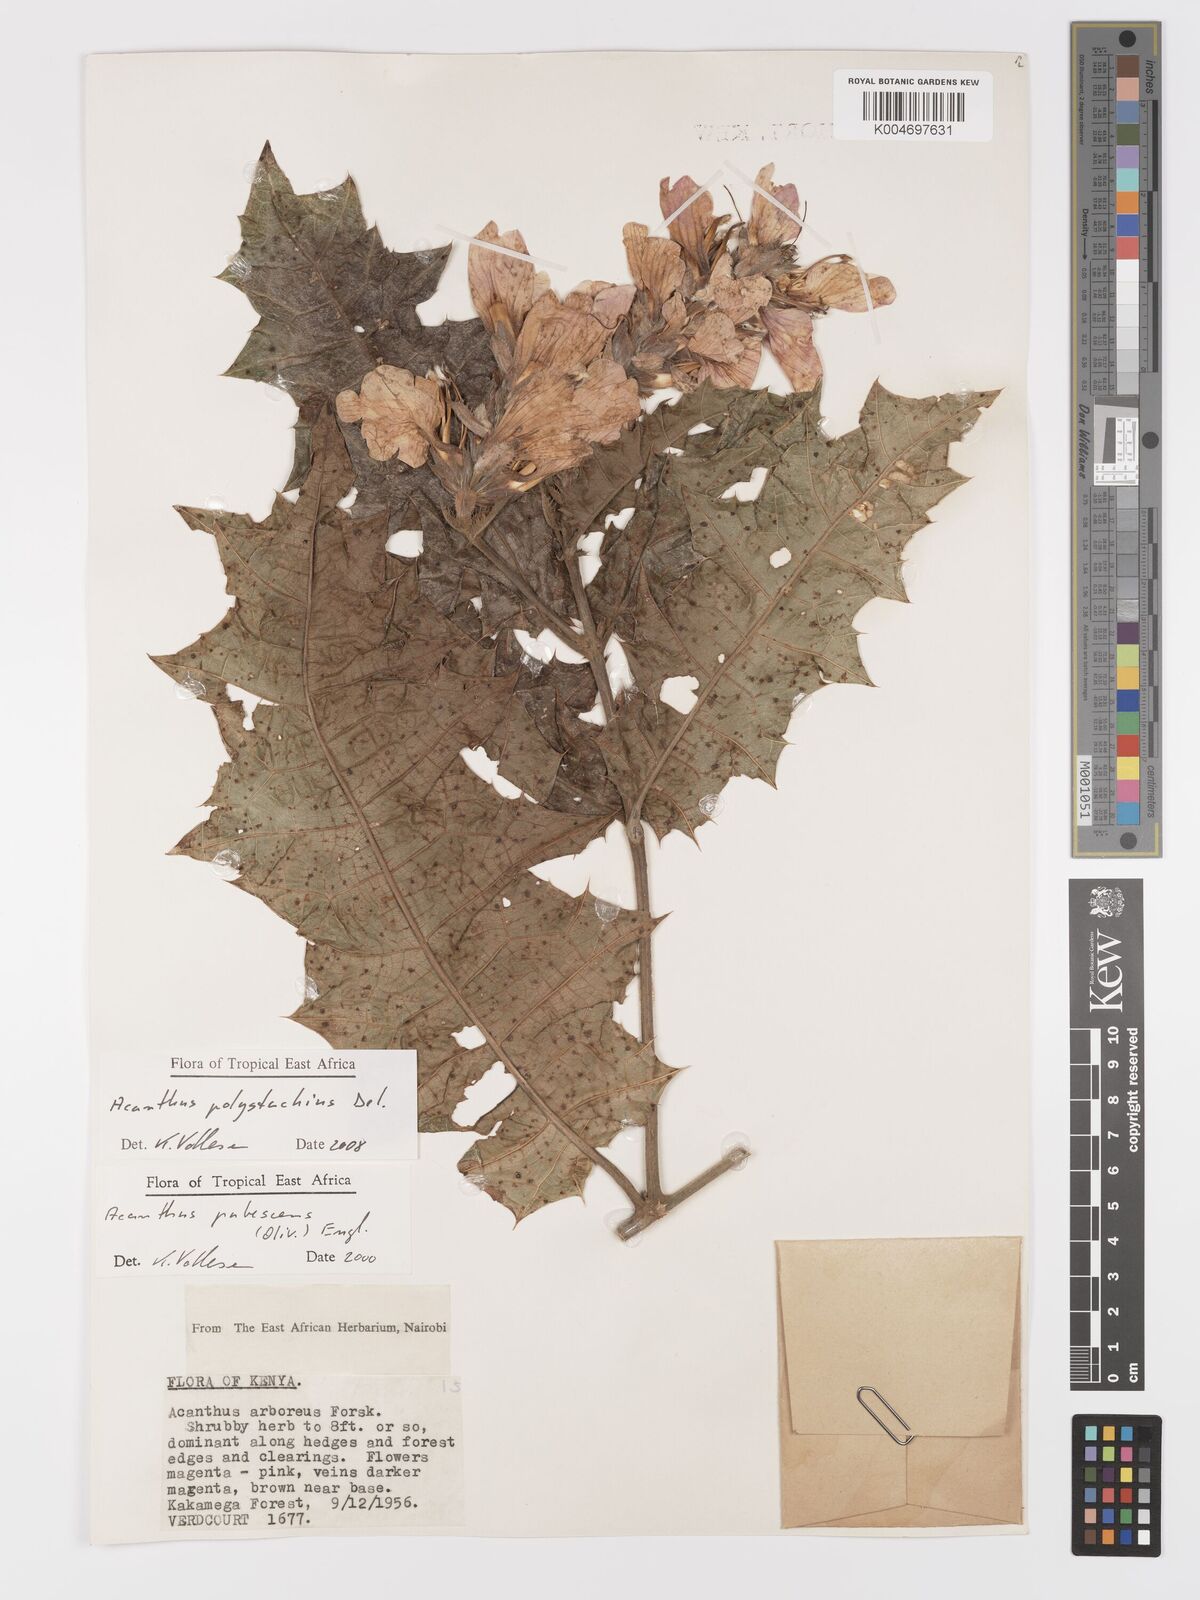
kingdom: Plantae
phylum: Tracheophyta
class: Magnoliopsida
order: Lamiales
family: Acanthaceae
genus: Acanthus
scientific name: Acanthus polystachyus
